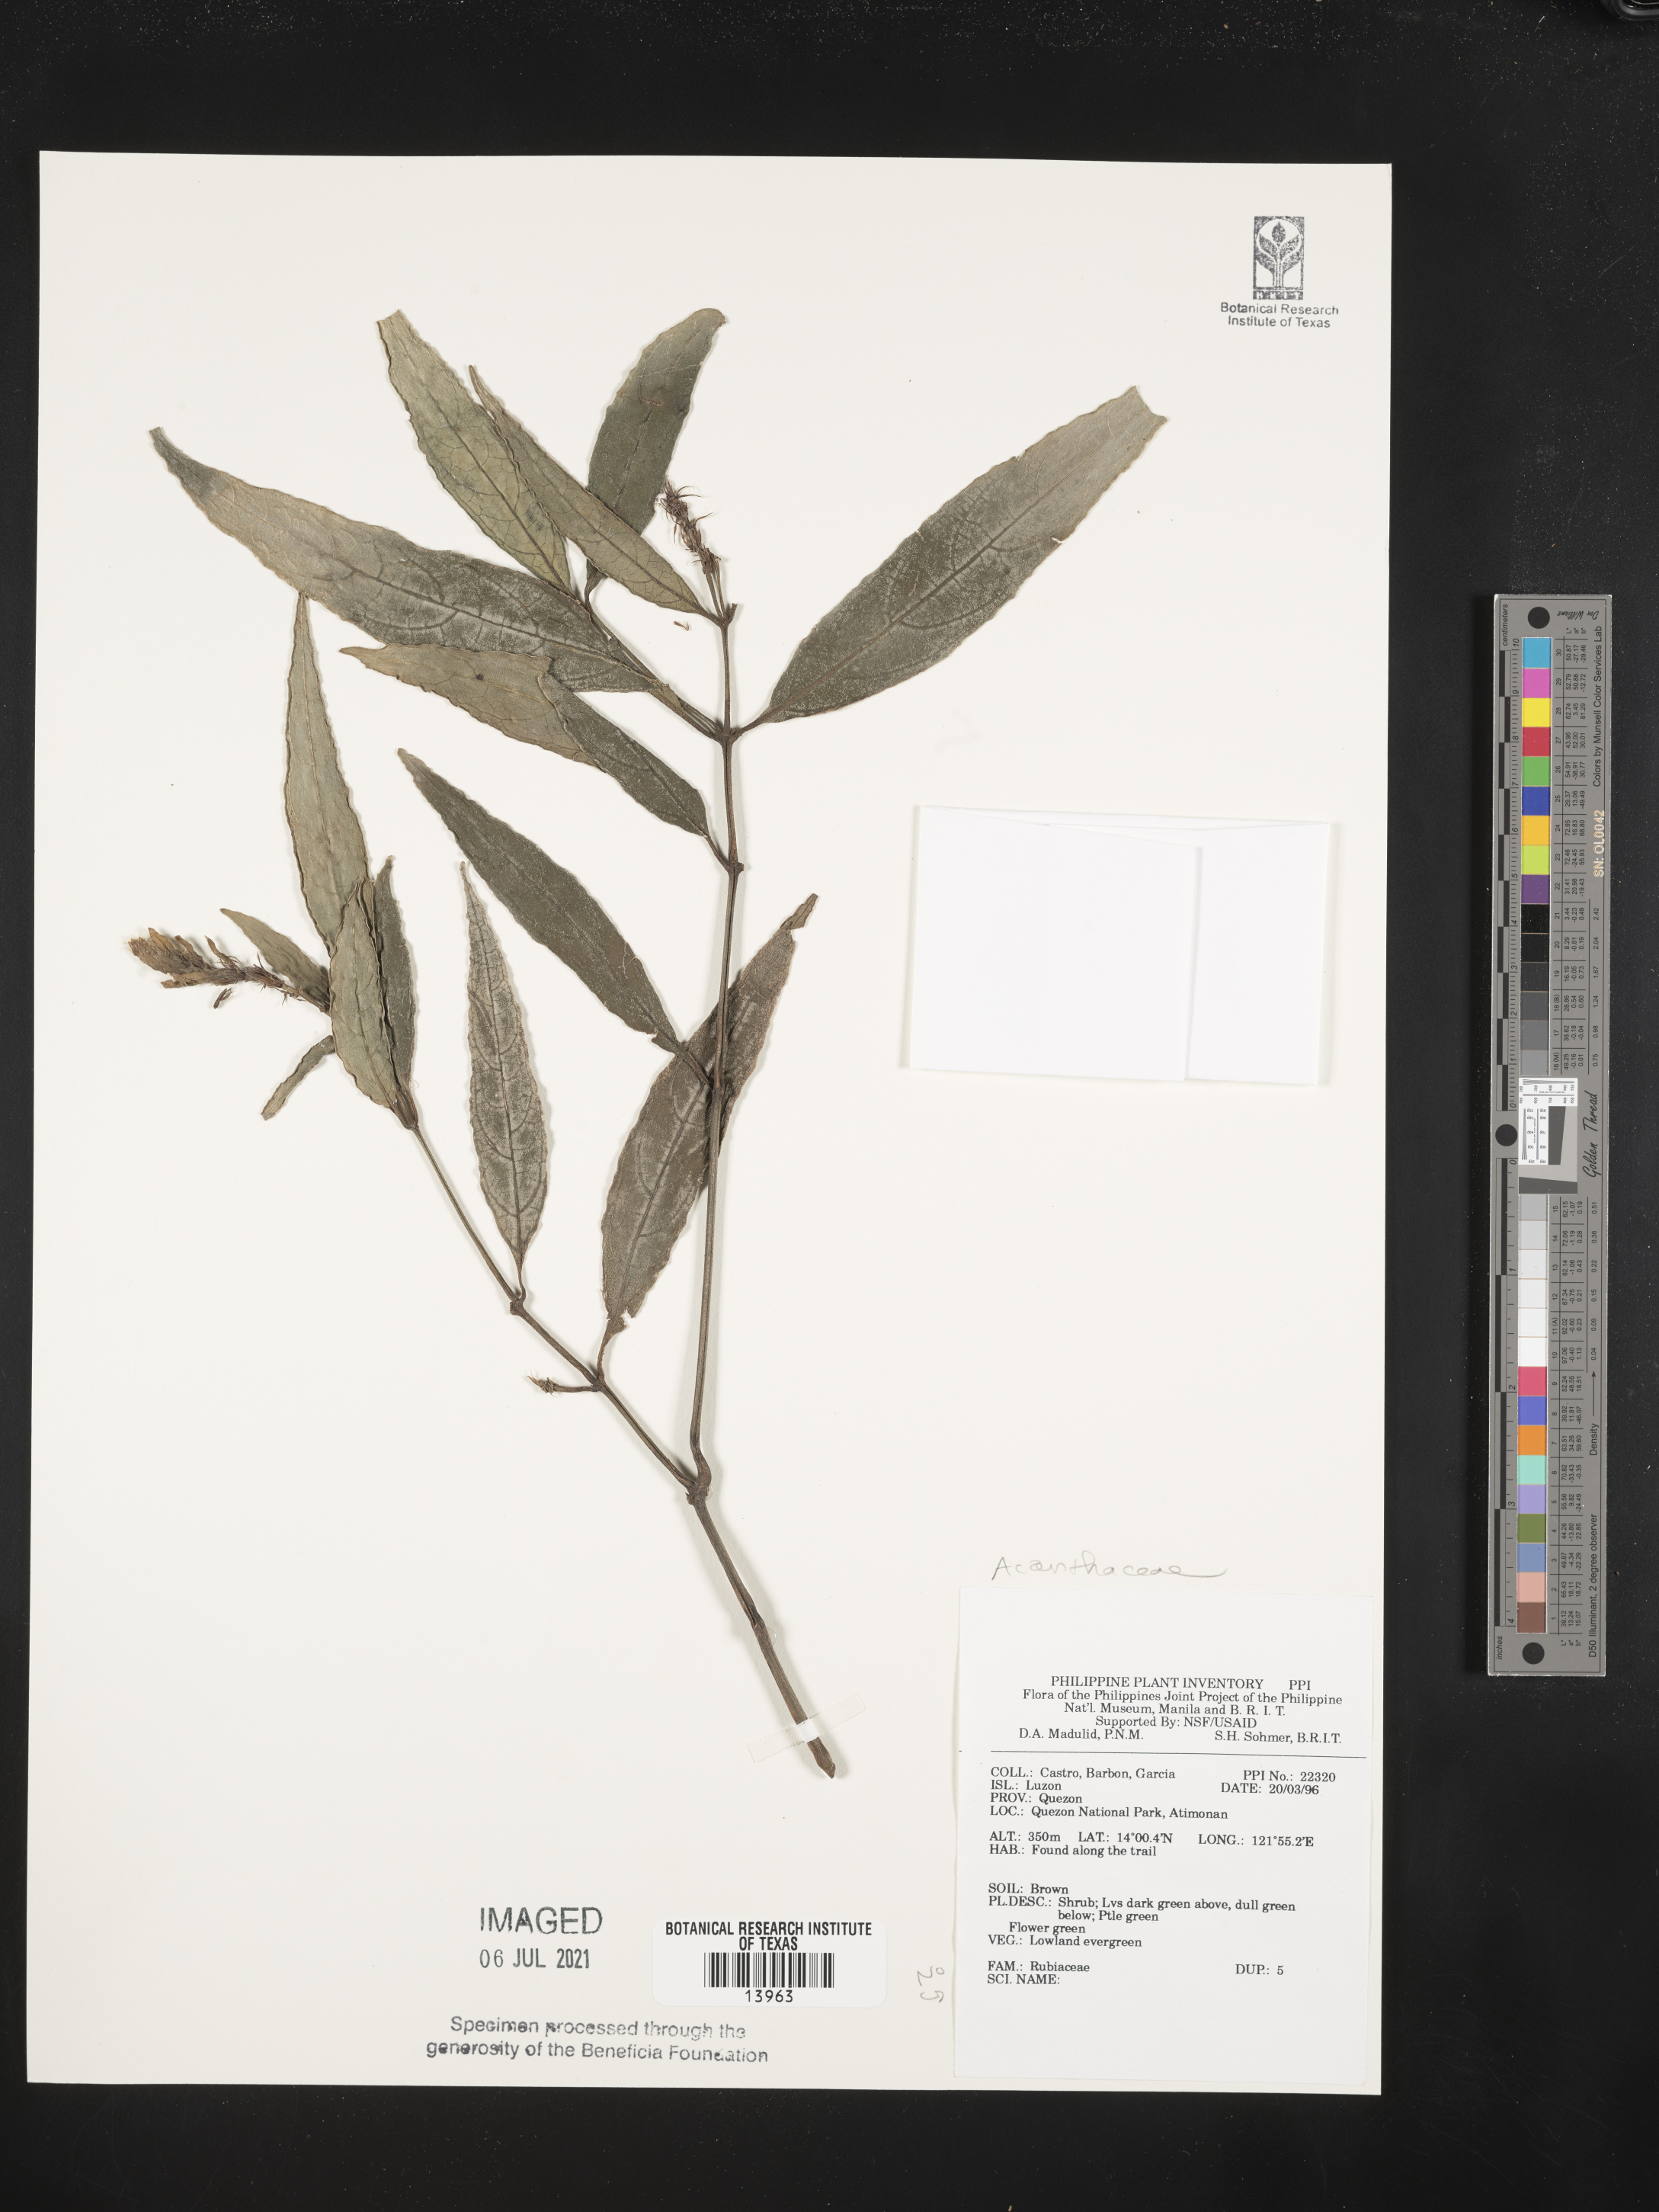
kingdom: Plantae
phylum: Tracheophyta
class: Magnoliopsida
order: Lamiales
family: Acanthaceae
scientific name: Acanthaceae
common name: Acanthaceae
